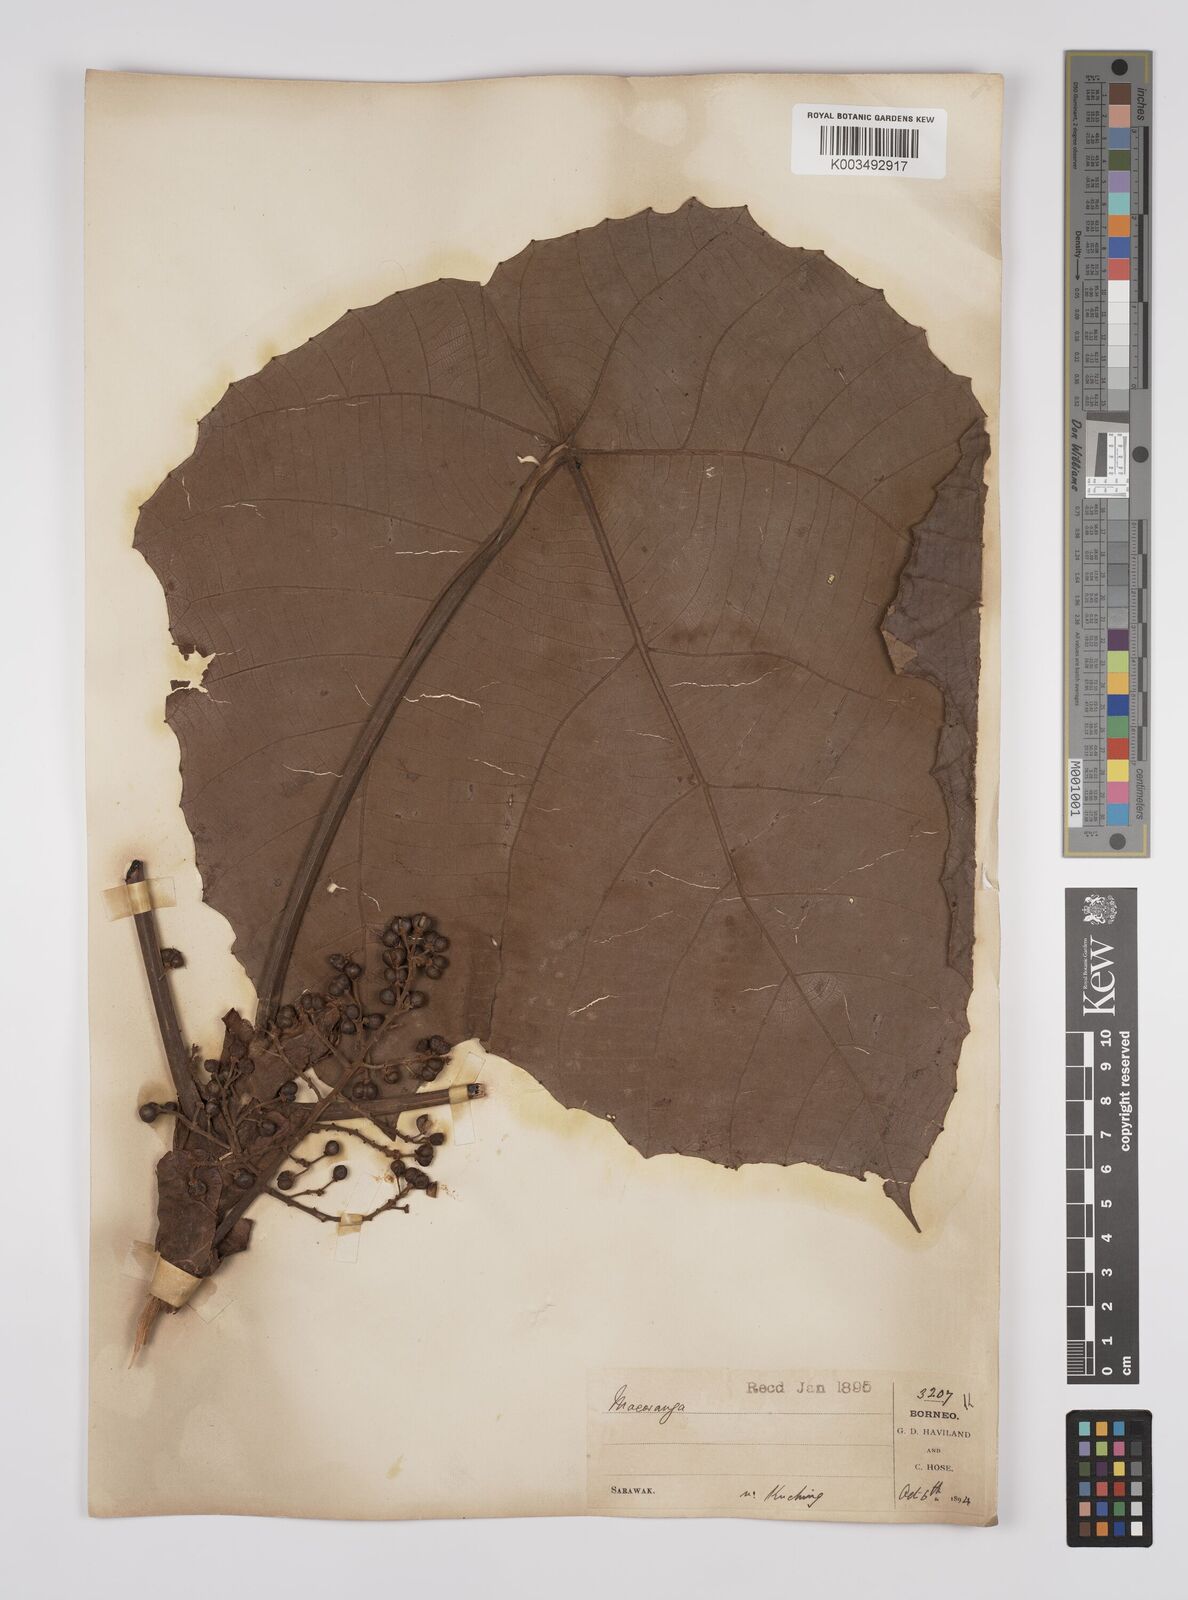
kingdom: Plantae
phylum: Tracheophyta
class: Magnoliopsida
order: Malpighiales
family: Euphorbiaceae
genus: Macaranga
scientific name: Macaranga gigantea
